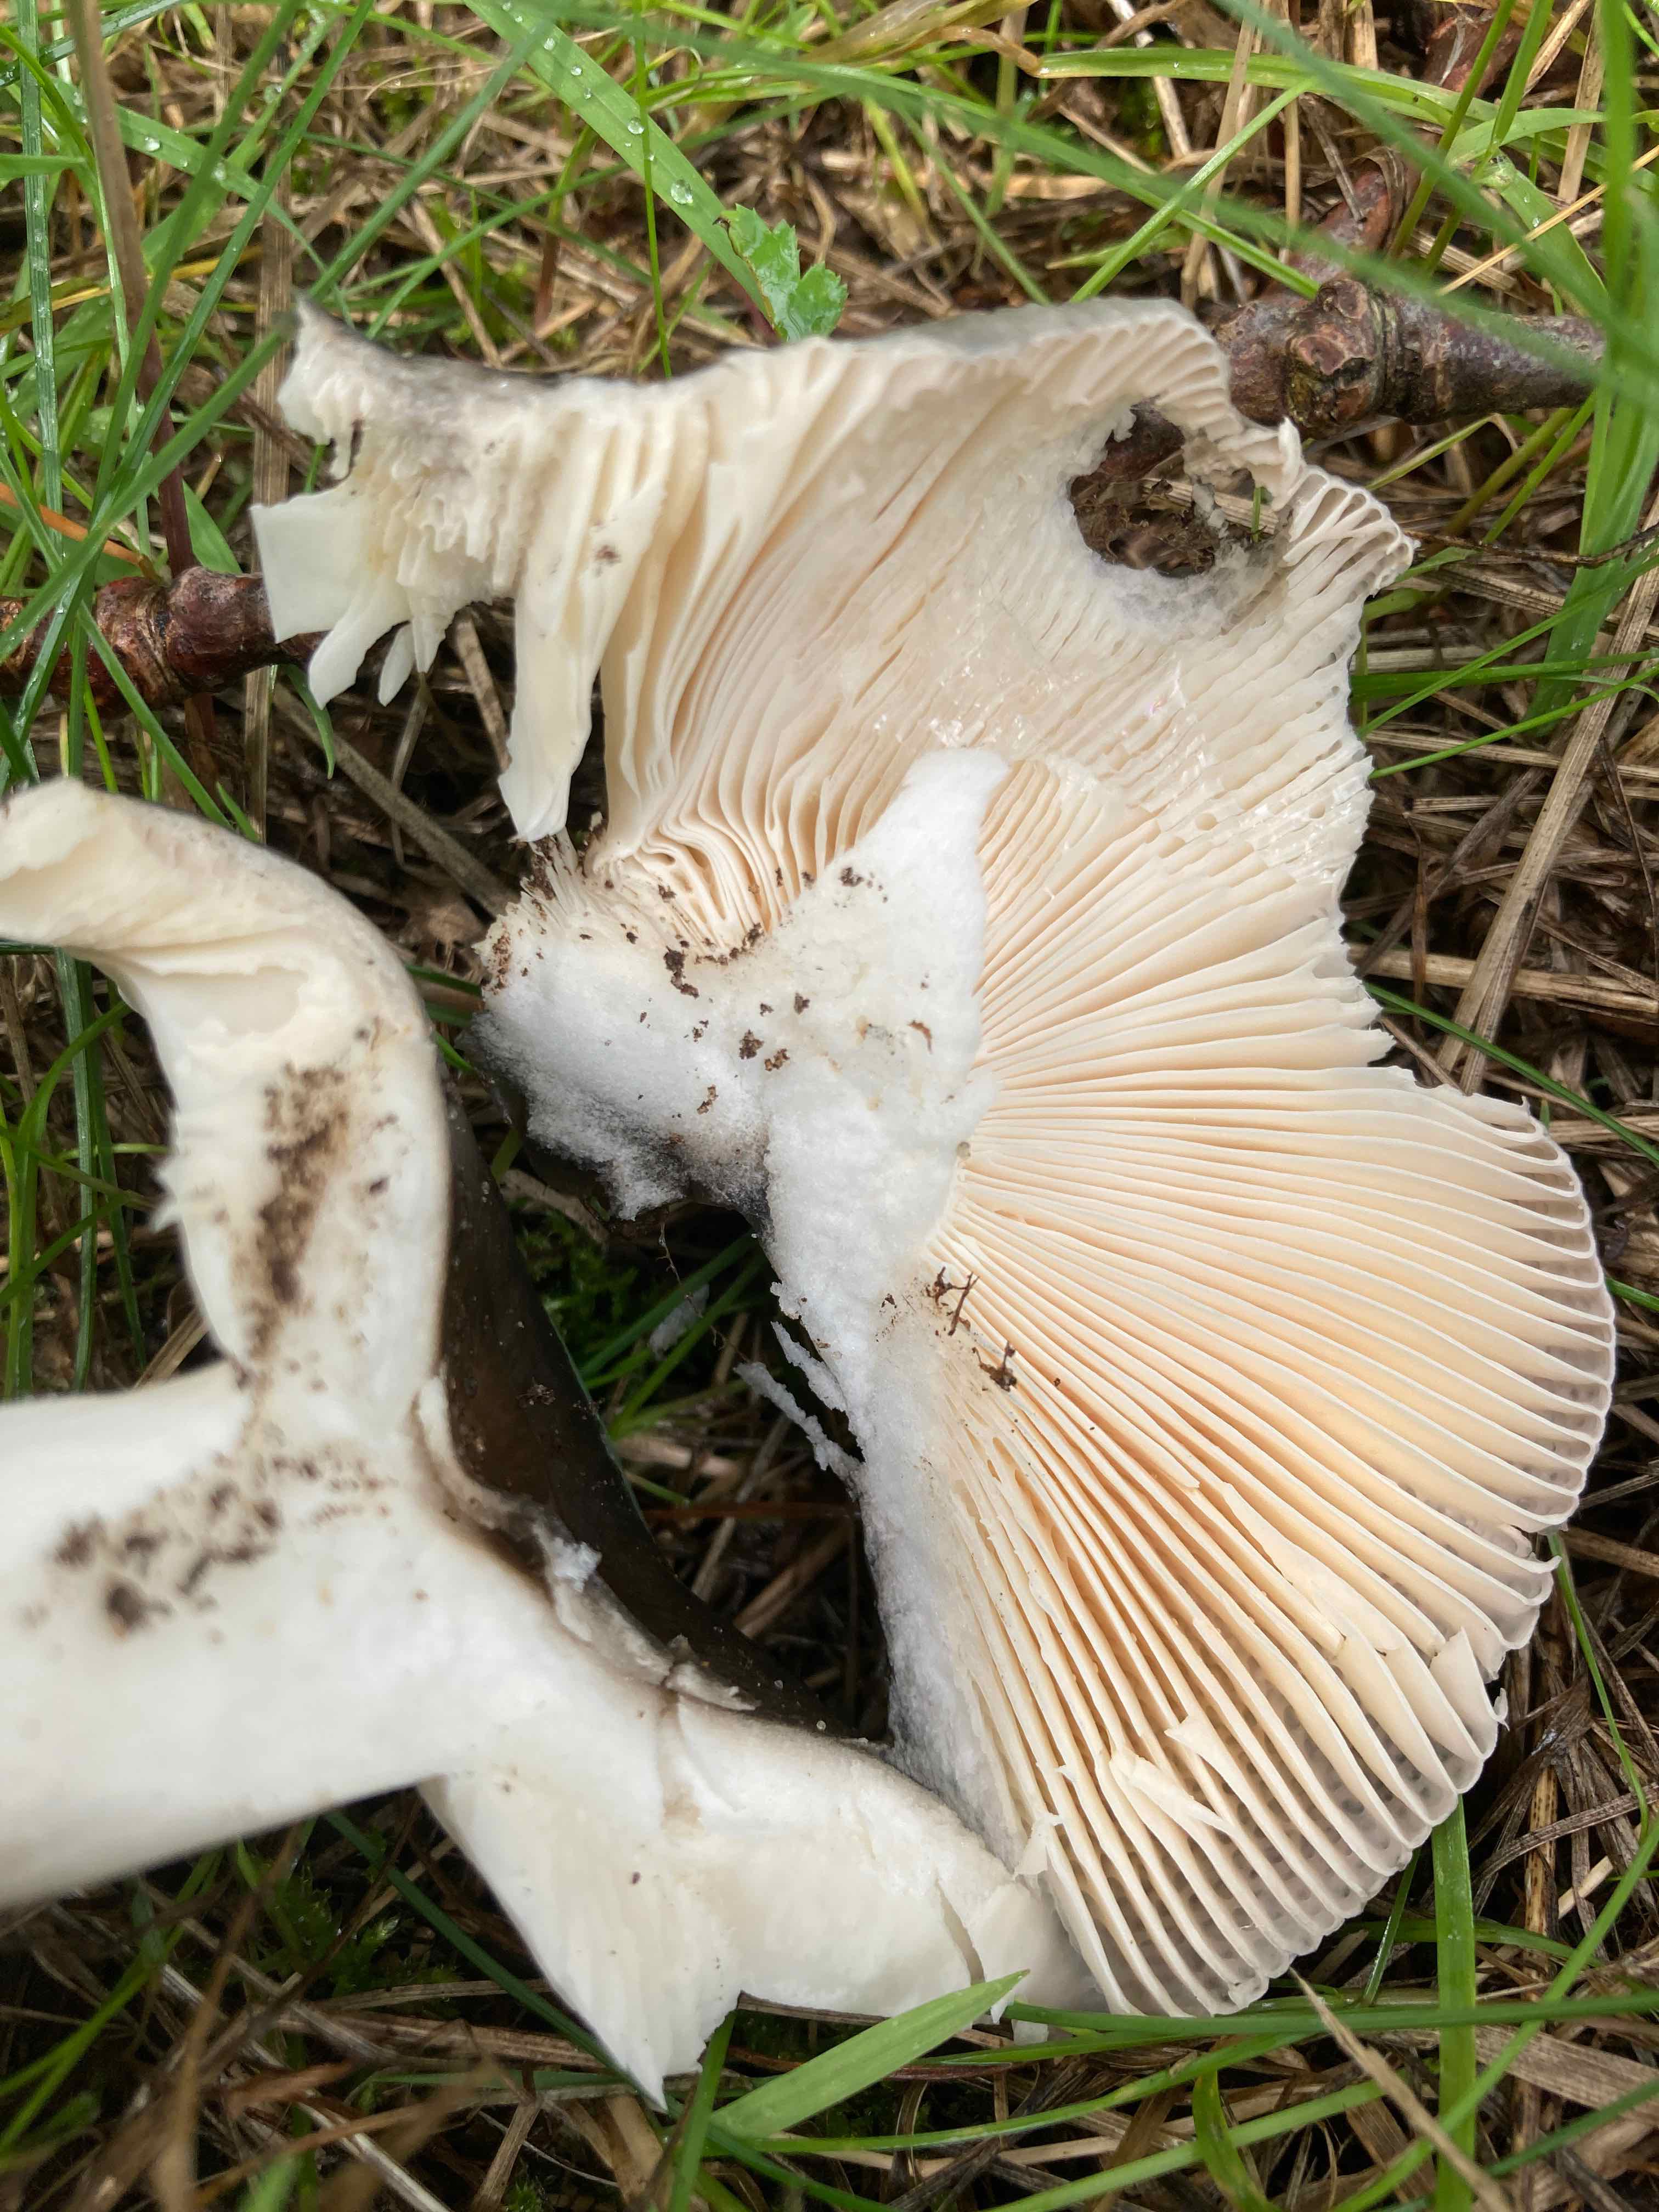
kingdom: Fungi
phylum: Basidiomycota
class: Agaricomycetes
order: Russulales
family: Russulaceae
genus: Russula
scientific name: Russula
